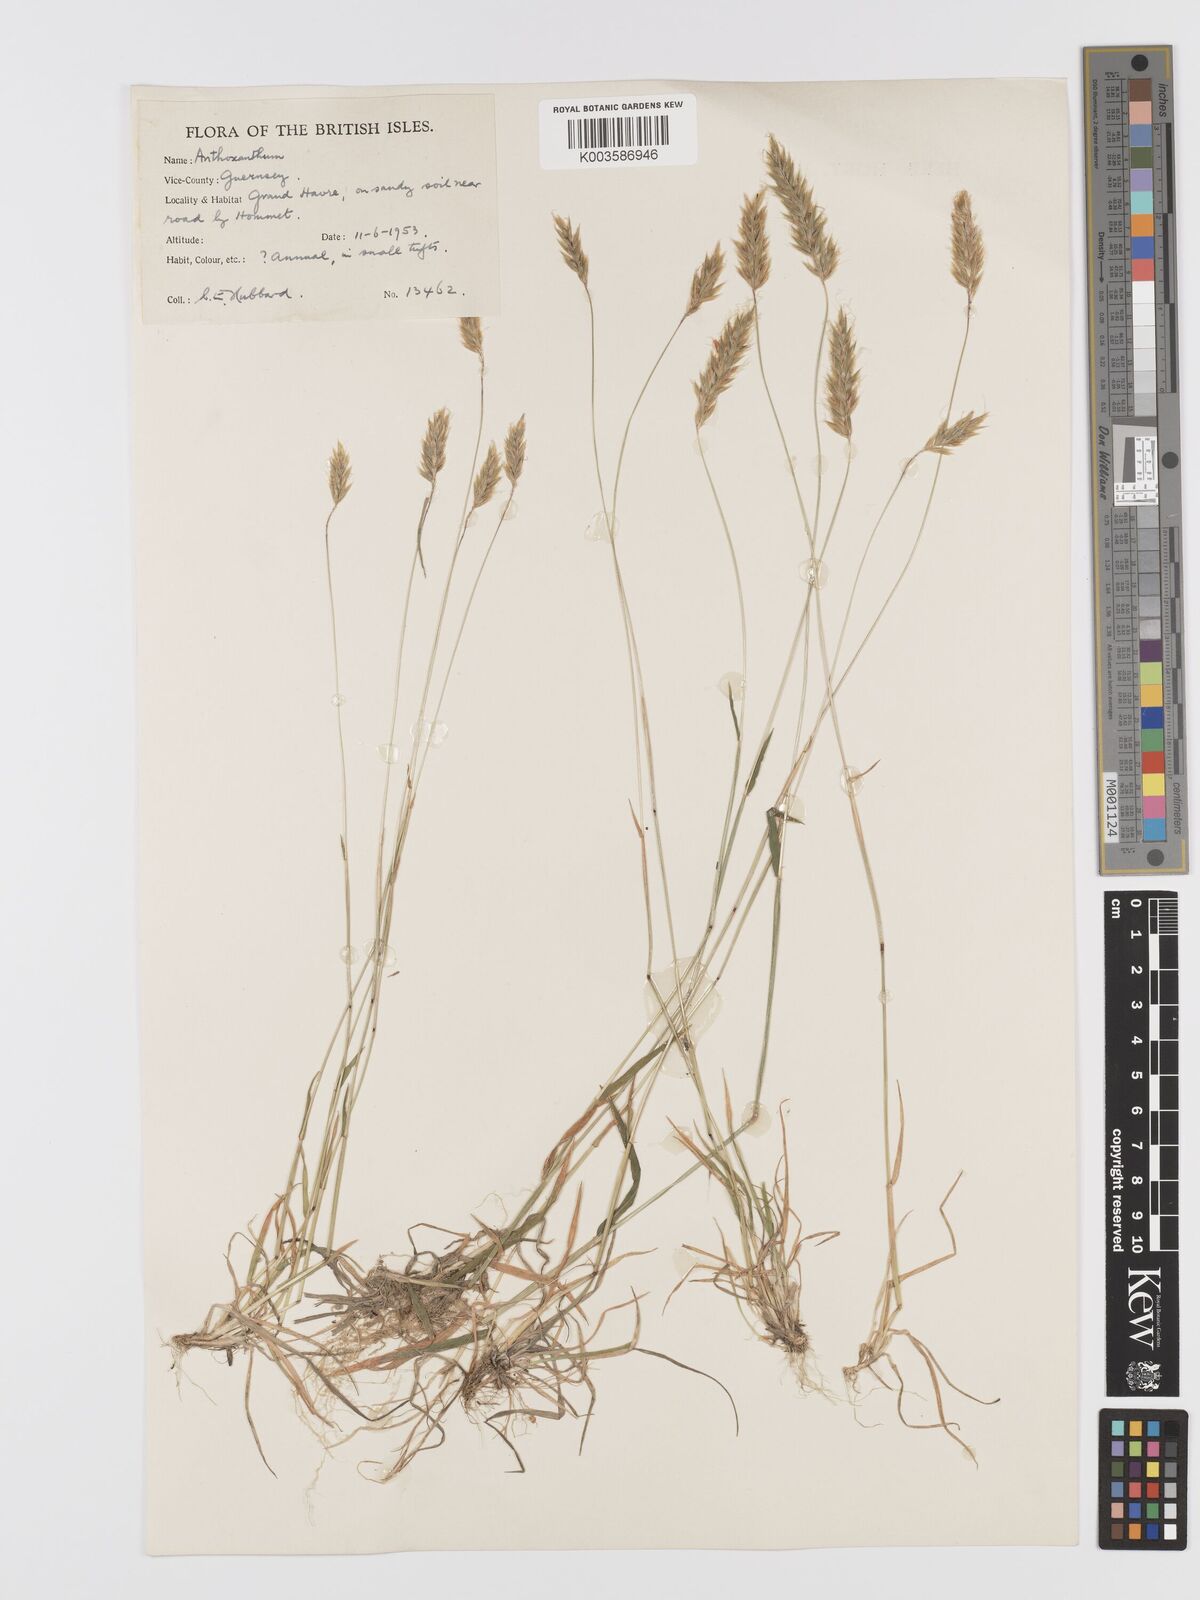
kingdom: Plantae
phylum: Tracheophyta
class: Liliopsida
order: Poales
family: Poaceae
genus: Anthoxanthum
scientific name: Anthoxanthum
